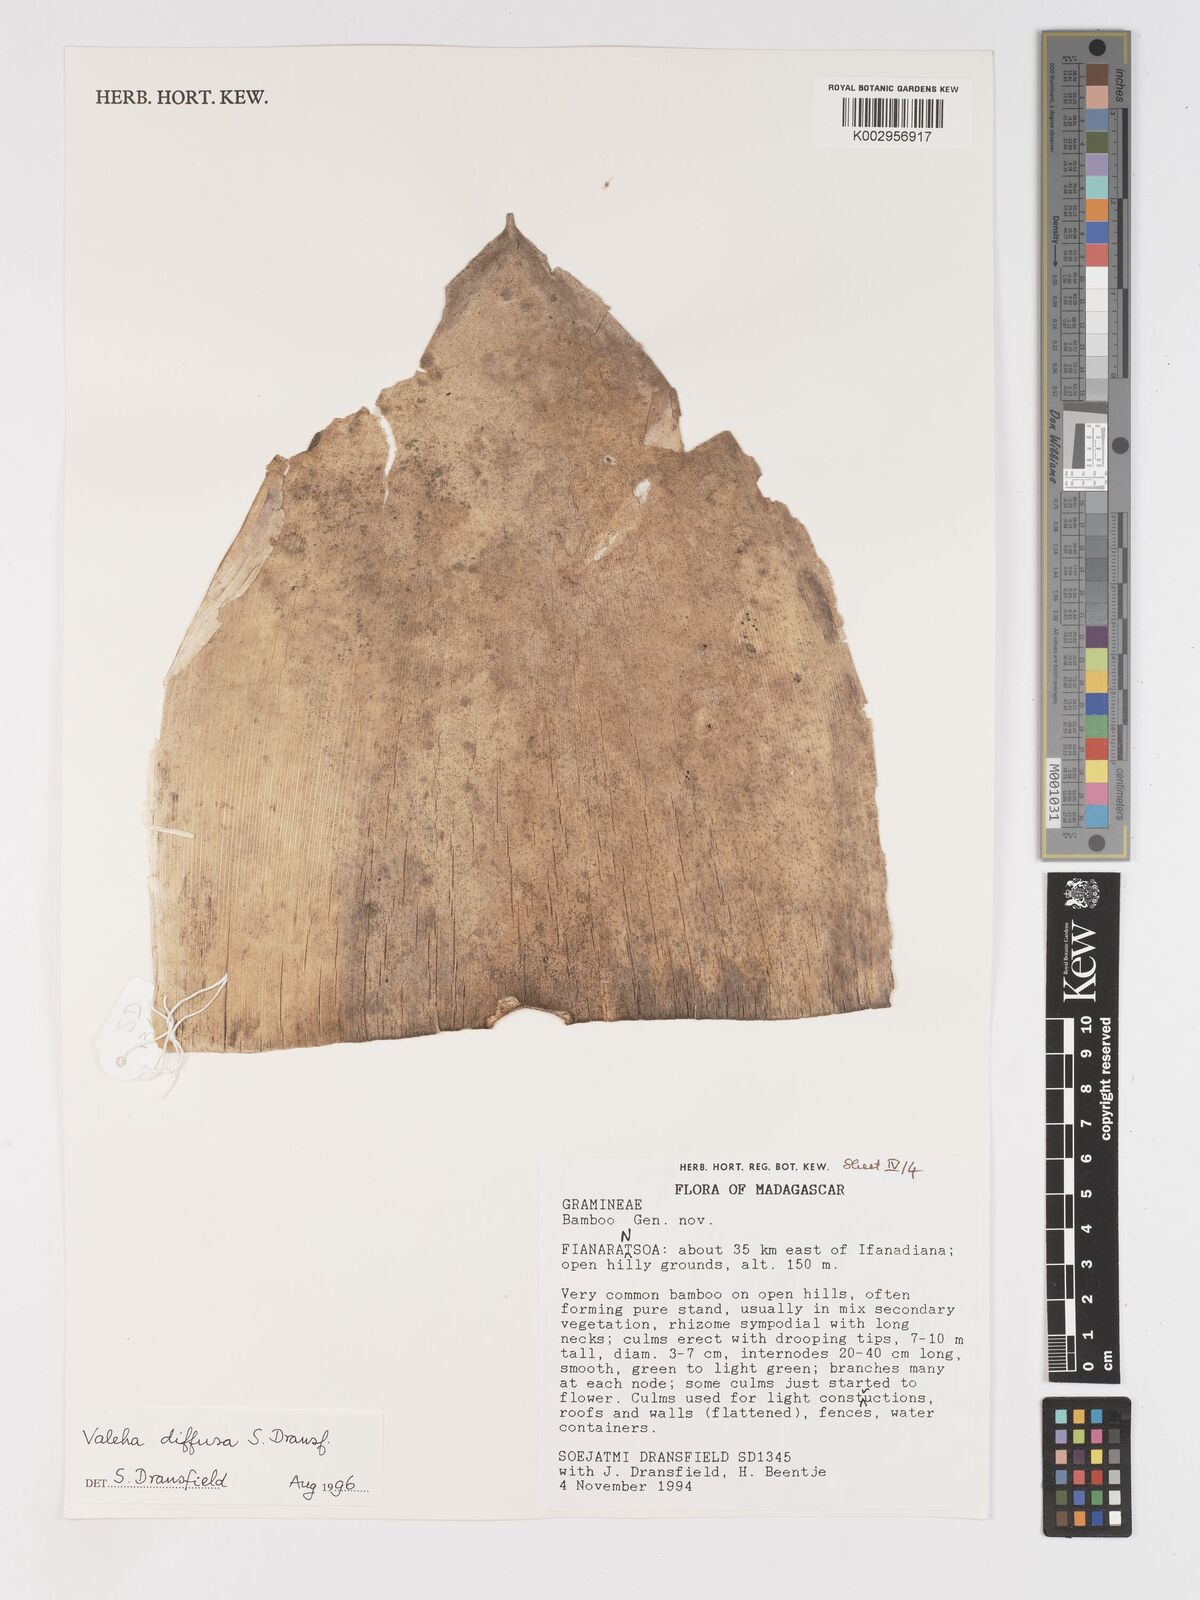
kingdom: Plantae
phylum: Tracheophyta
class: Liliopsida
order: Poales
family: Poaceae
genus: Valiha
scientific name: Valiha diffusa
